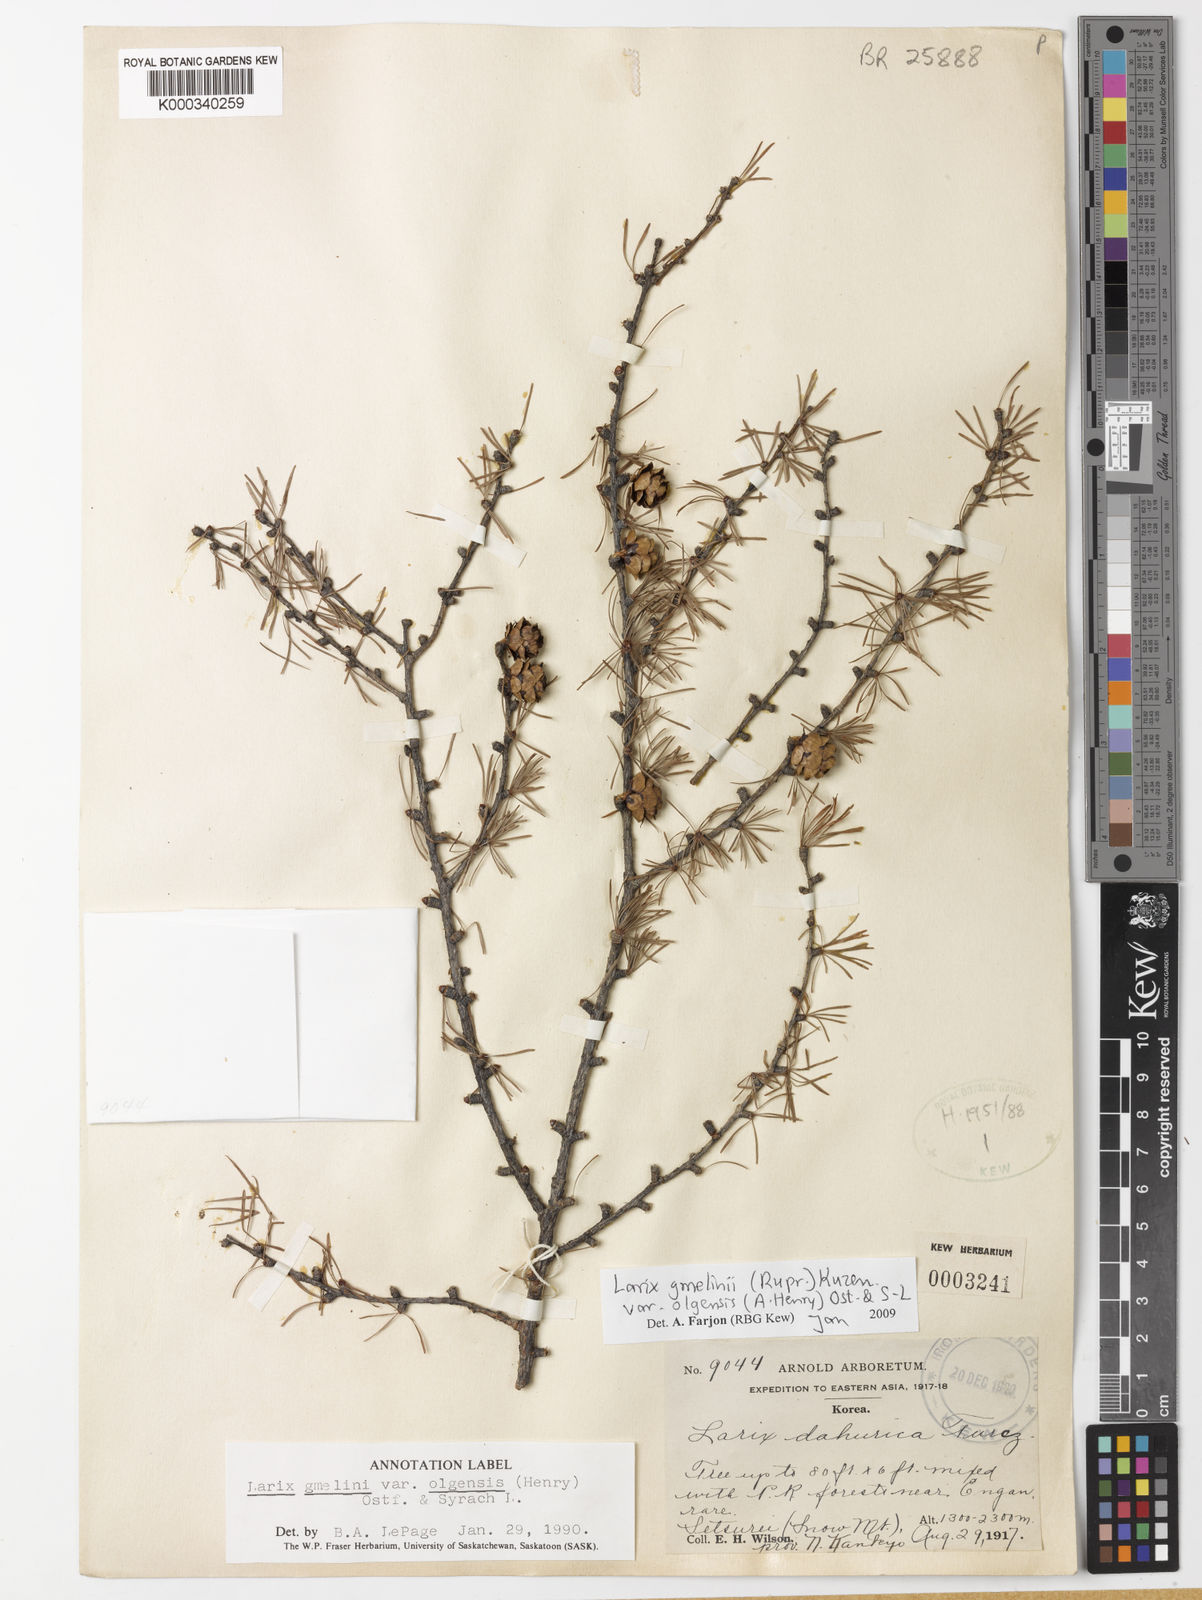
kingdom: Plantae
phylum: Tracheophyta
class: Pinopsida
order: Pinales
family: Pinaceae
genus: Larix
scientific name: Larix gmelinii
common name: Dahurian larch
